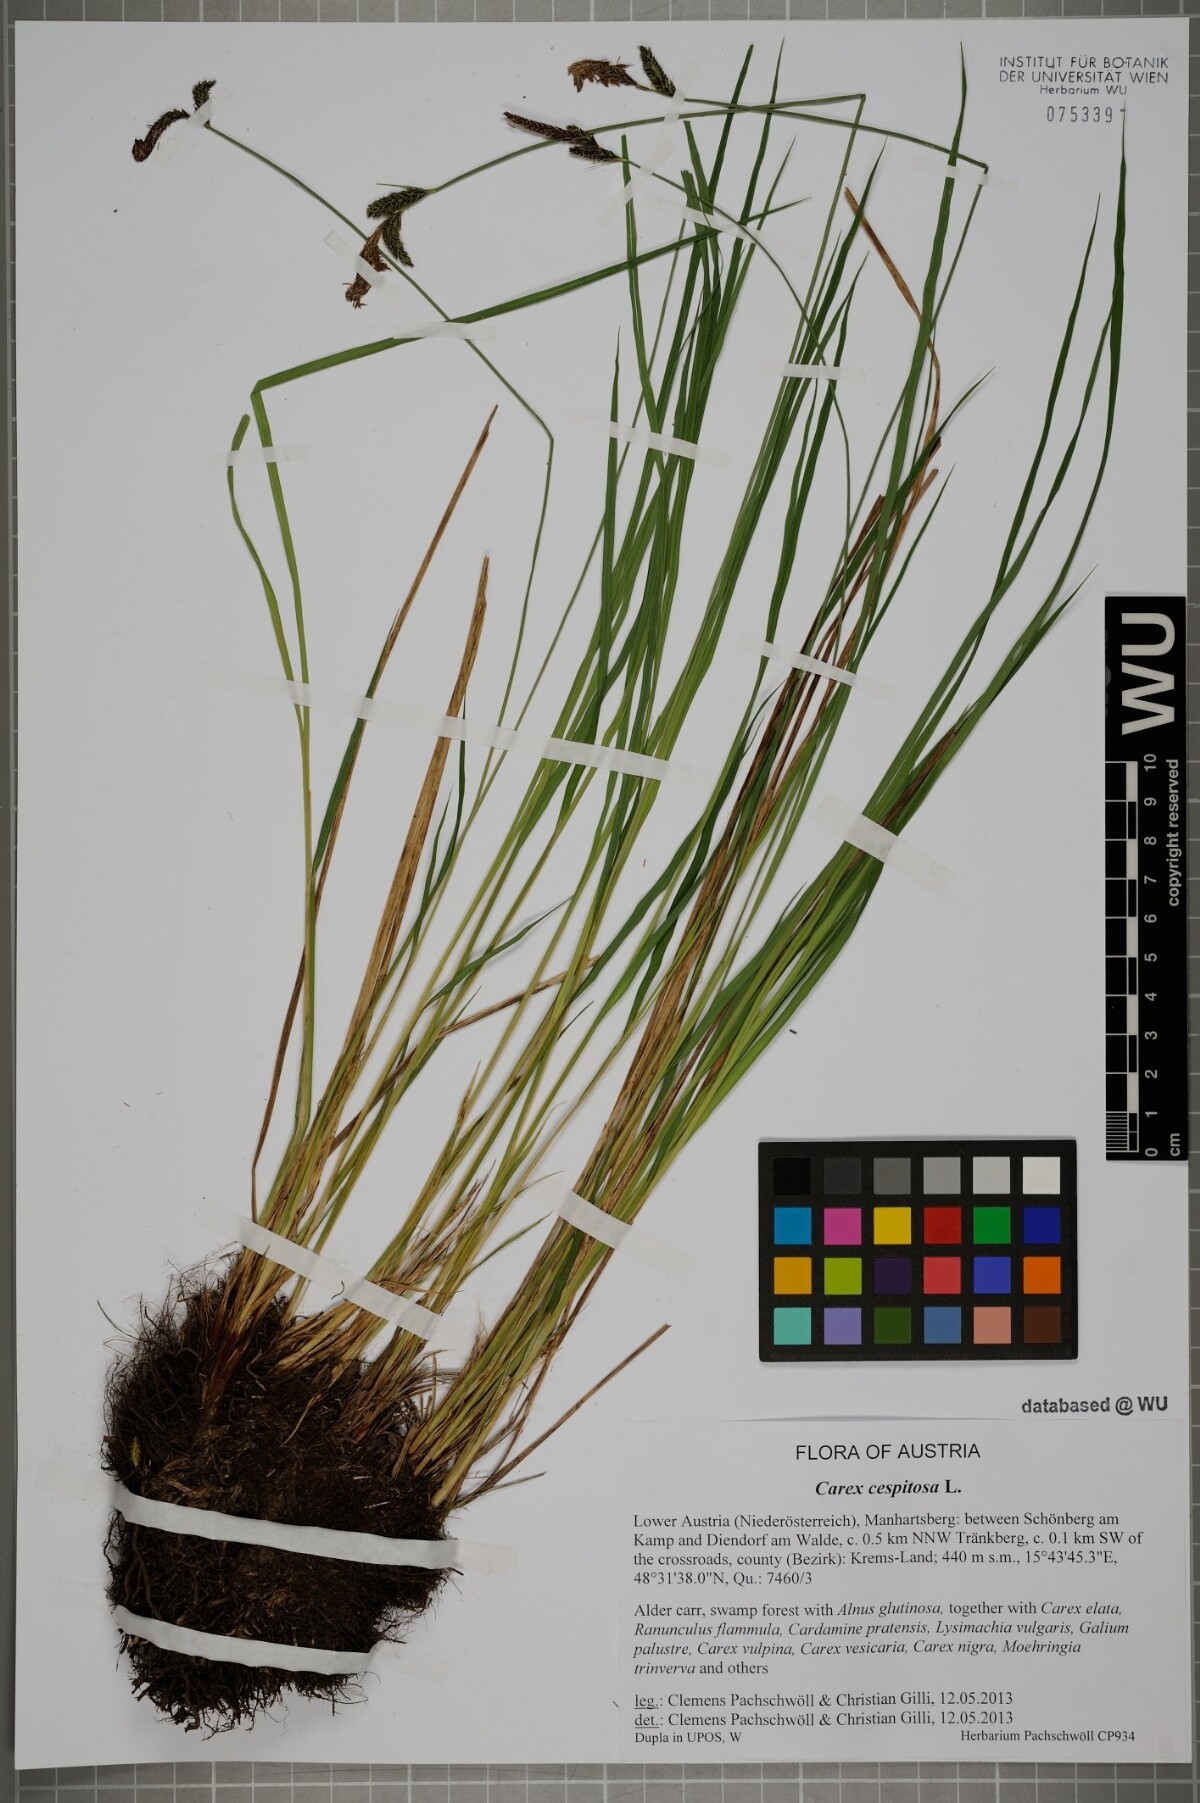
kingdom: Plantae
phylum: Tracheophyta
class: Liliopsida
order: Poales
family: Cyperaceae
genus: Carex
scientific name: Carex cespitosa
